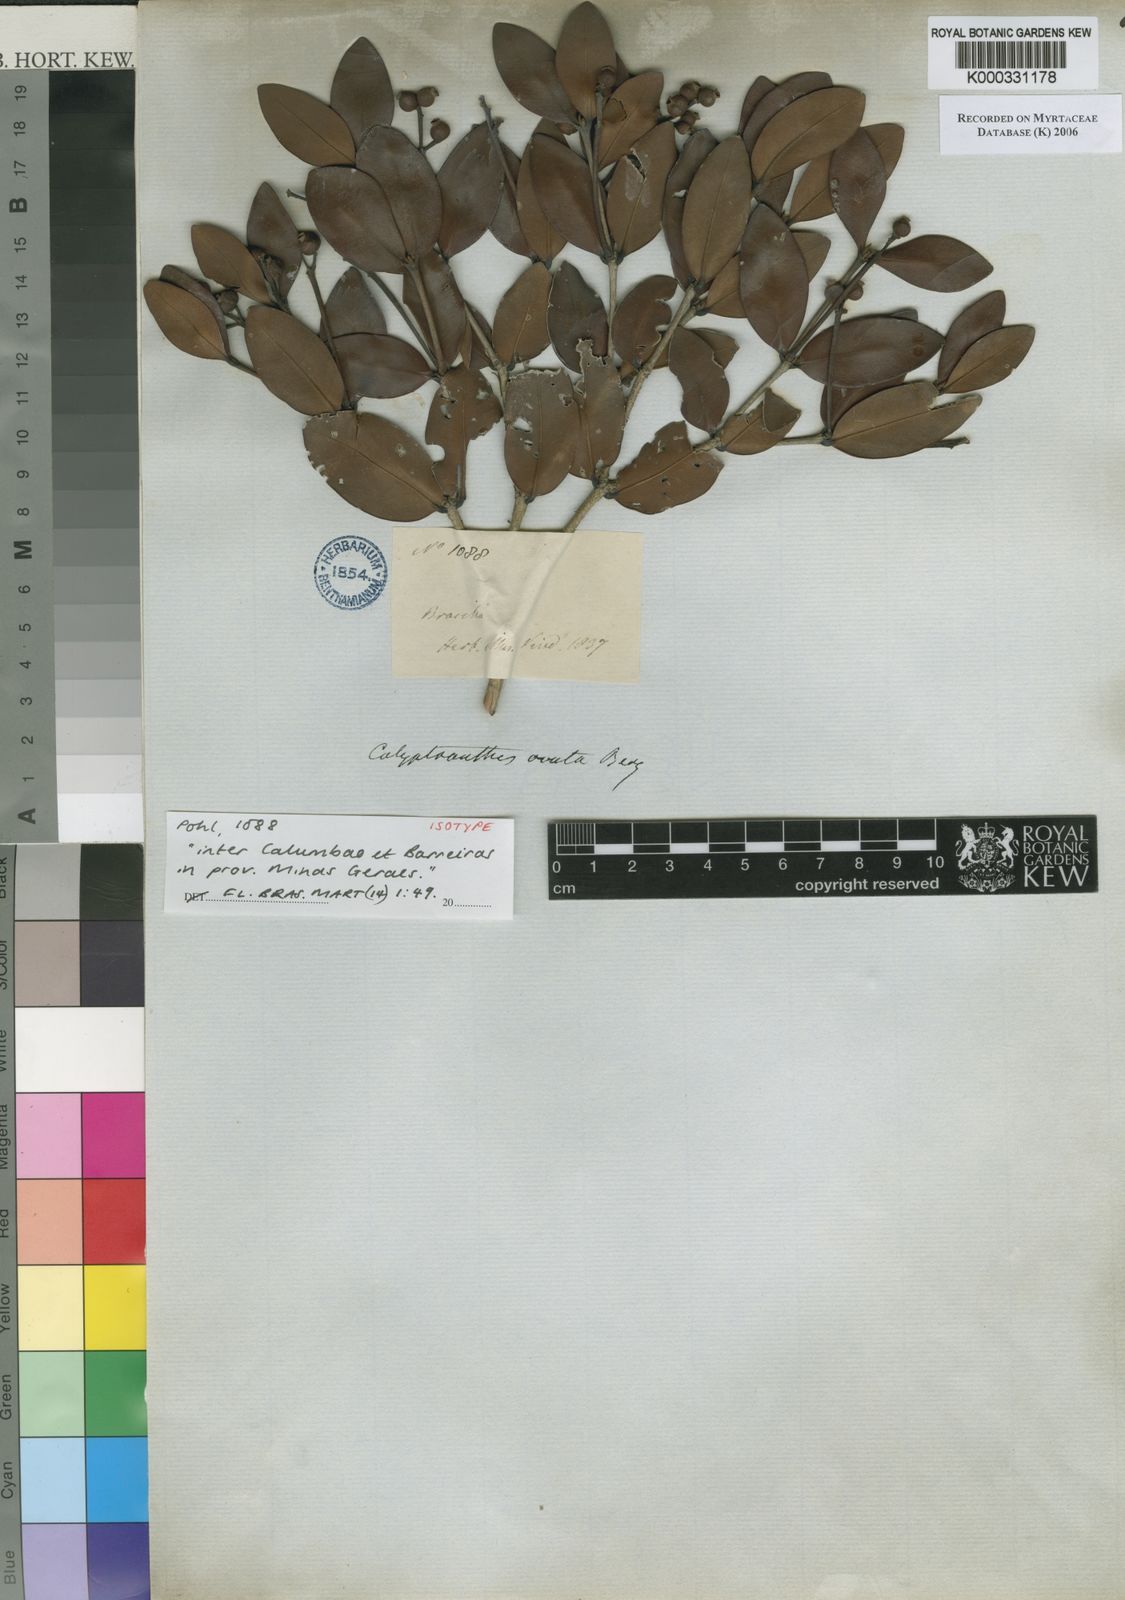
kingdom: Plantae
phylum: Tracheophyta
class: Magnoliopsida
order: Myrtales
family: Myrtaceae
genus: Calyptranthes
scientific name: Calyptranthes ovata
